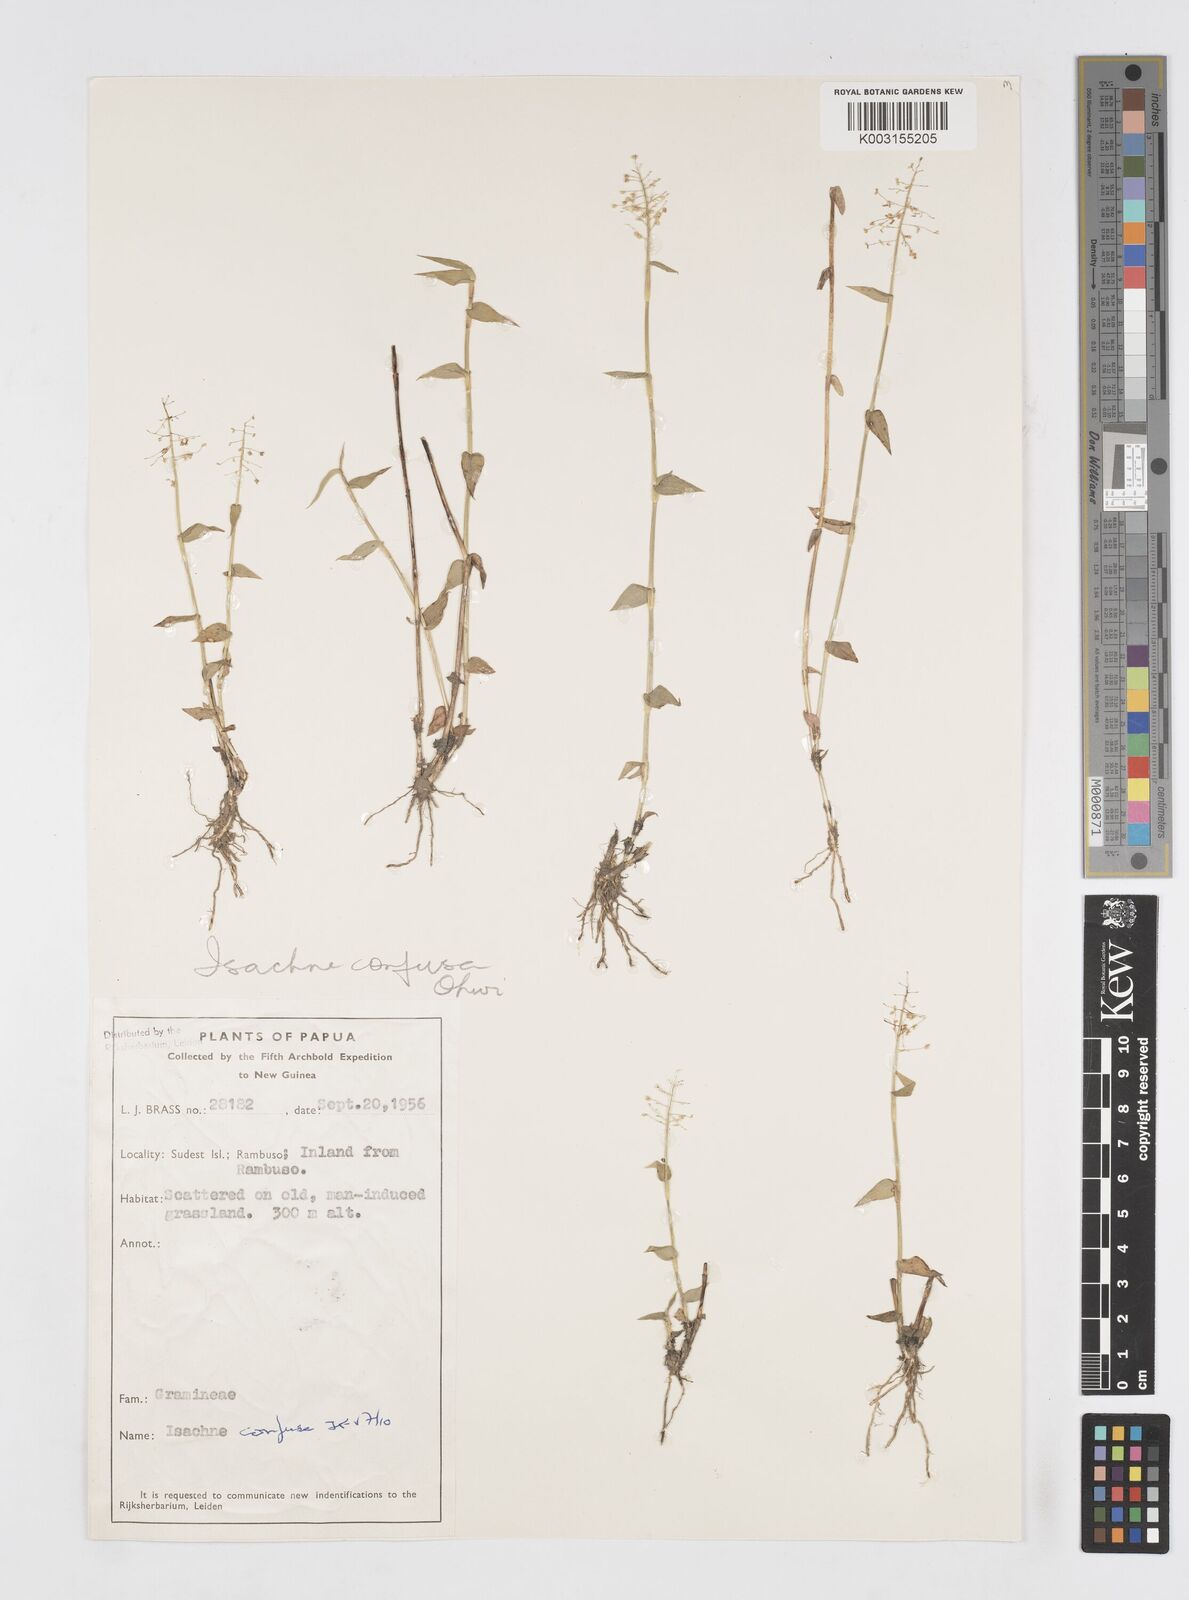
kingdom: Plantae
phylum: Tracheophyta
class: Liliopsida
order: Poales
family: Poaceae
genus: Isachne
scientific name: Isachne confusa
